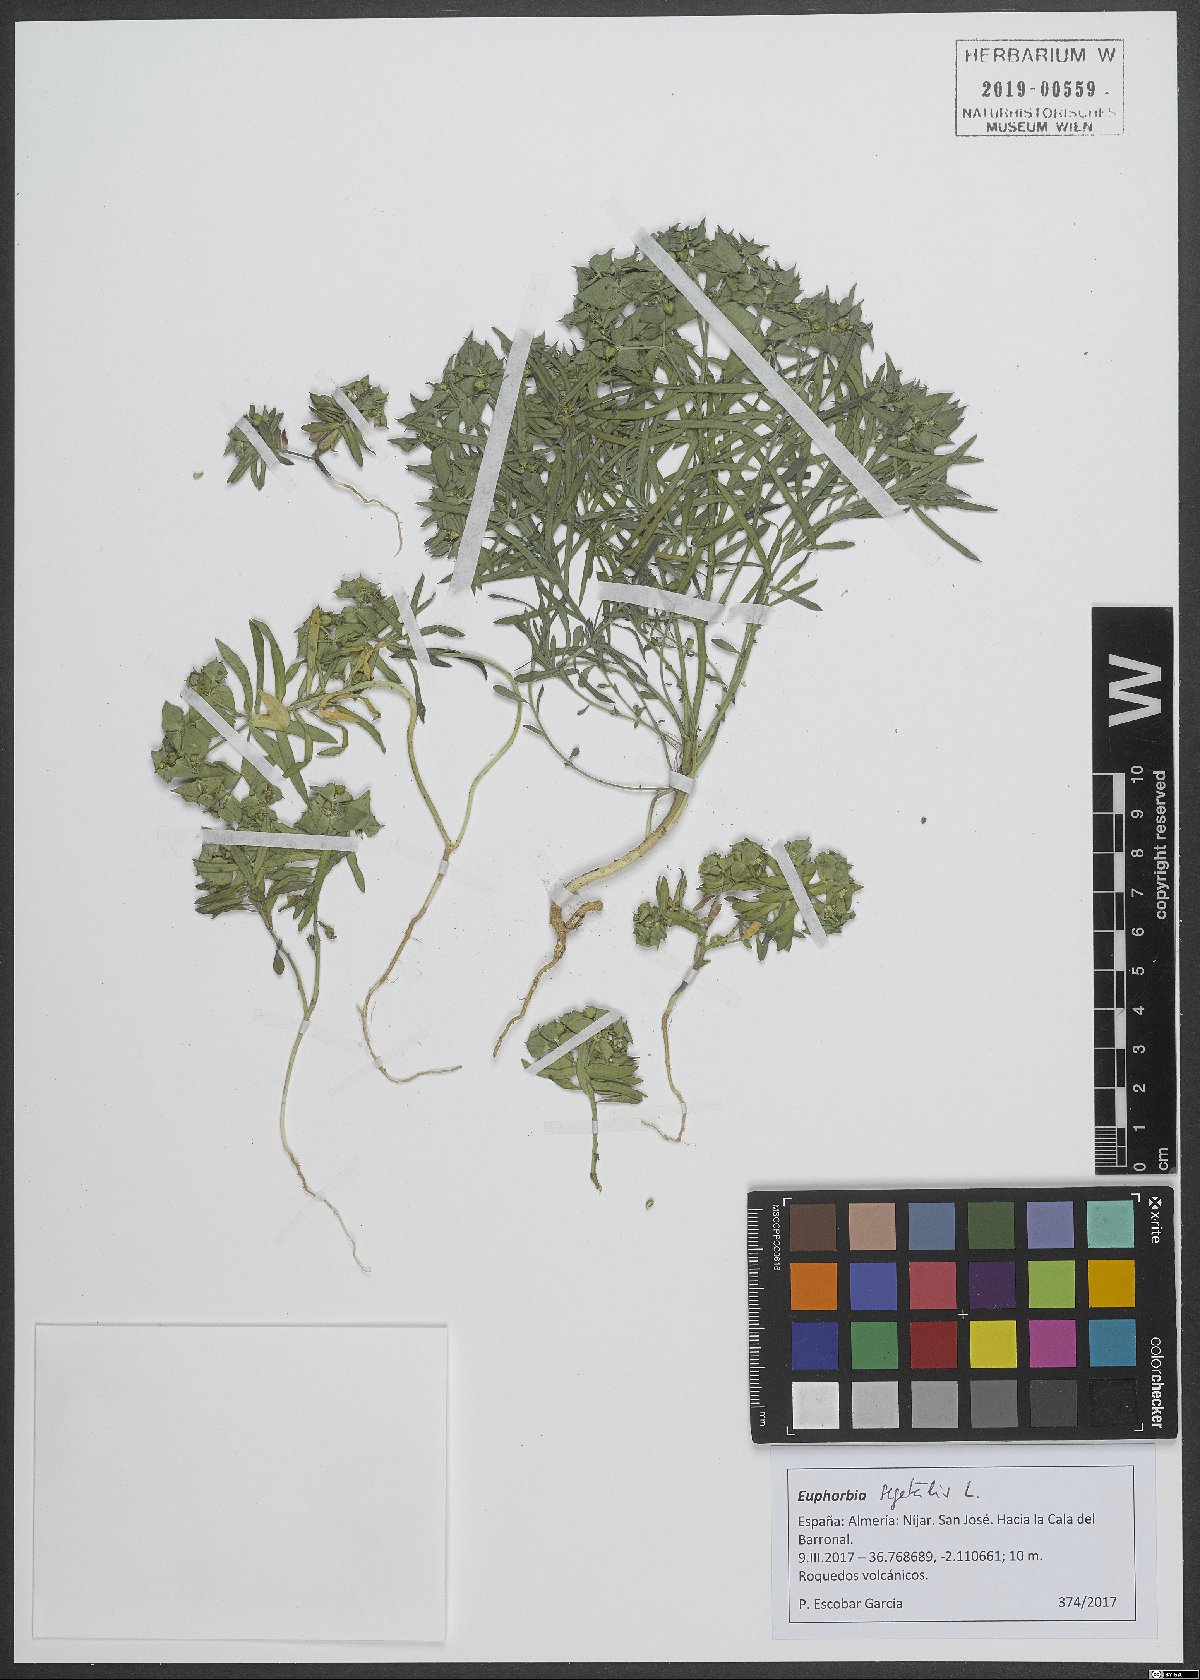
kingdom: Plantae
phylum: Tracheophyta
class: Magnoliopsida
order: Malpighiales
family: Euphorbiaceae
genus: Euphorbia
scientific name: Euphorbia segetalis
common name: Corn spurge
